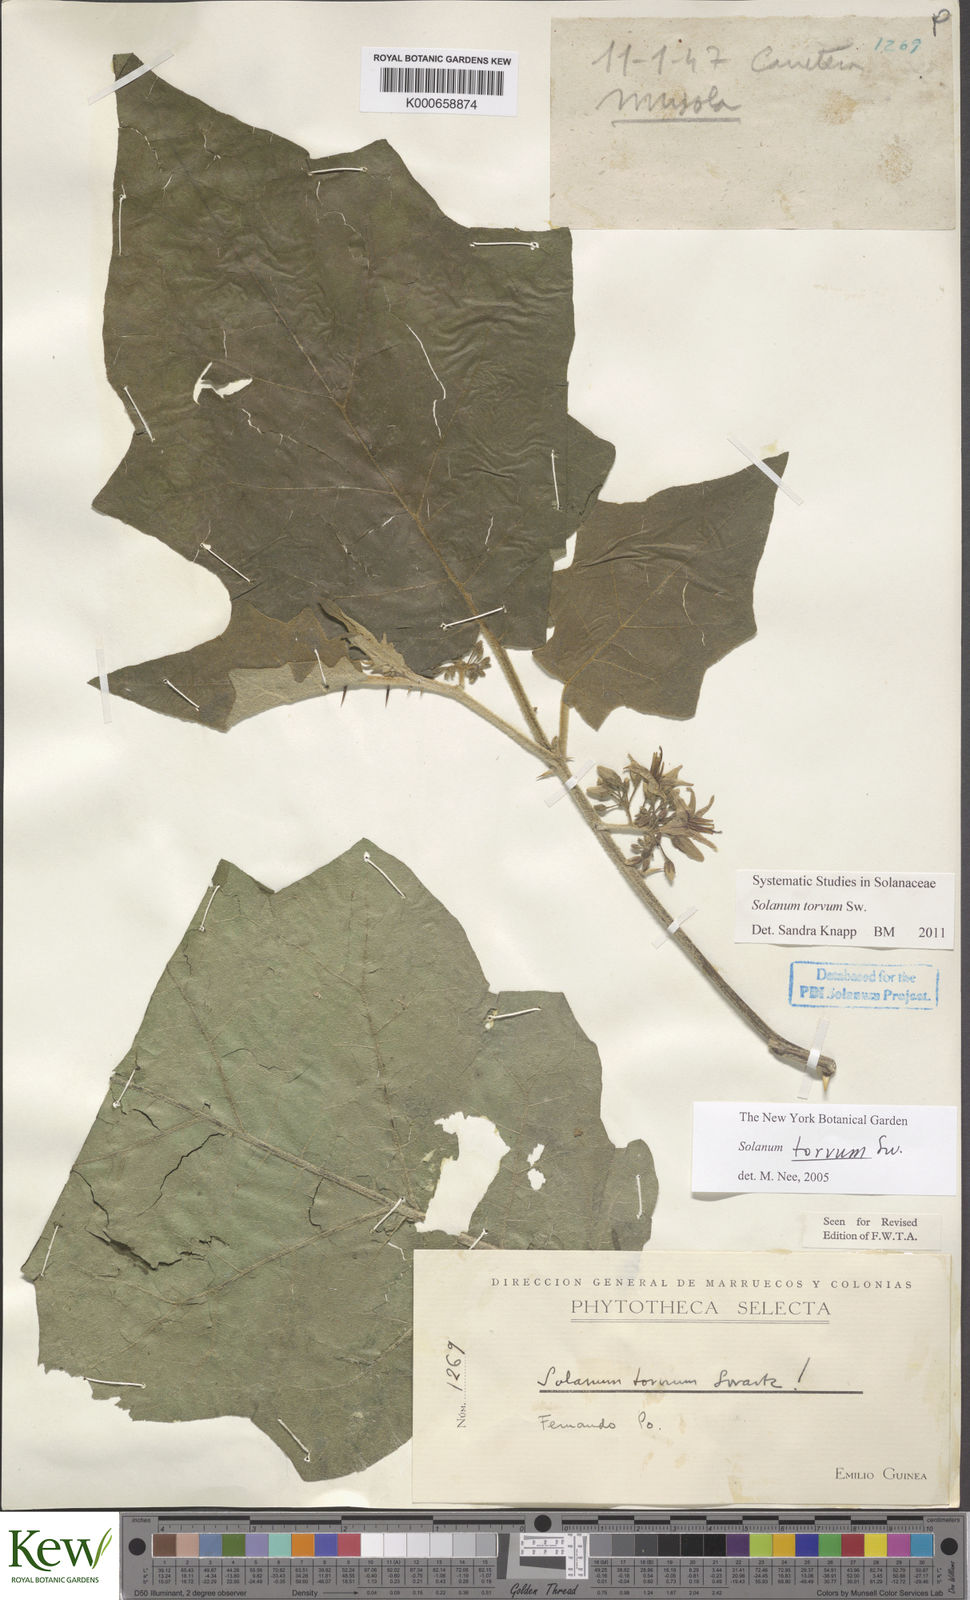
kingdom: Plantae
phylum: Tracheophyta
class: Magnoliopsida
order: Solanales
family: Solanaceae
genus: Solanum
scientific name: Solanum torvum
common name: Turkey berry
